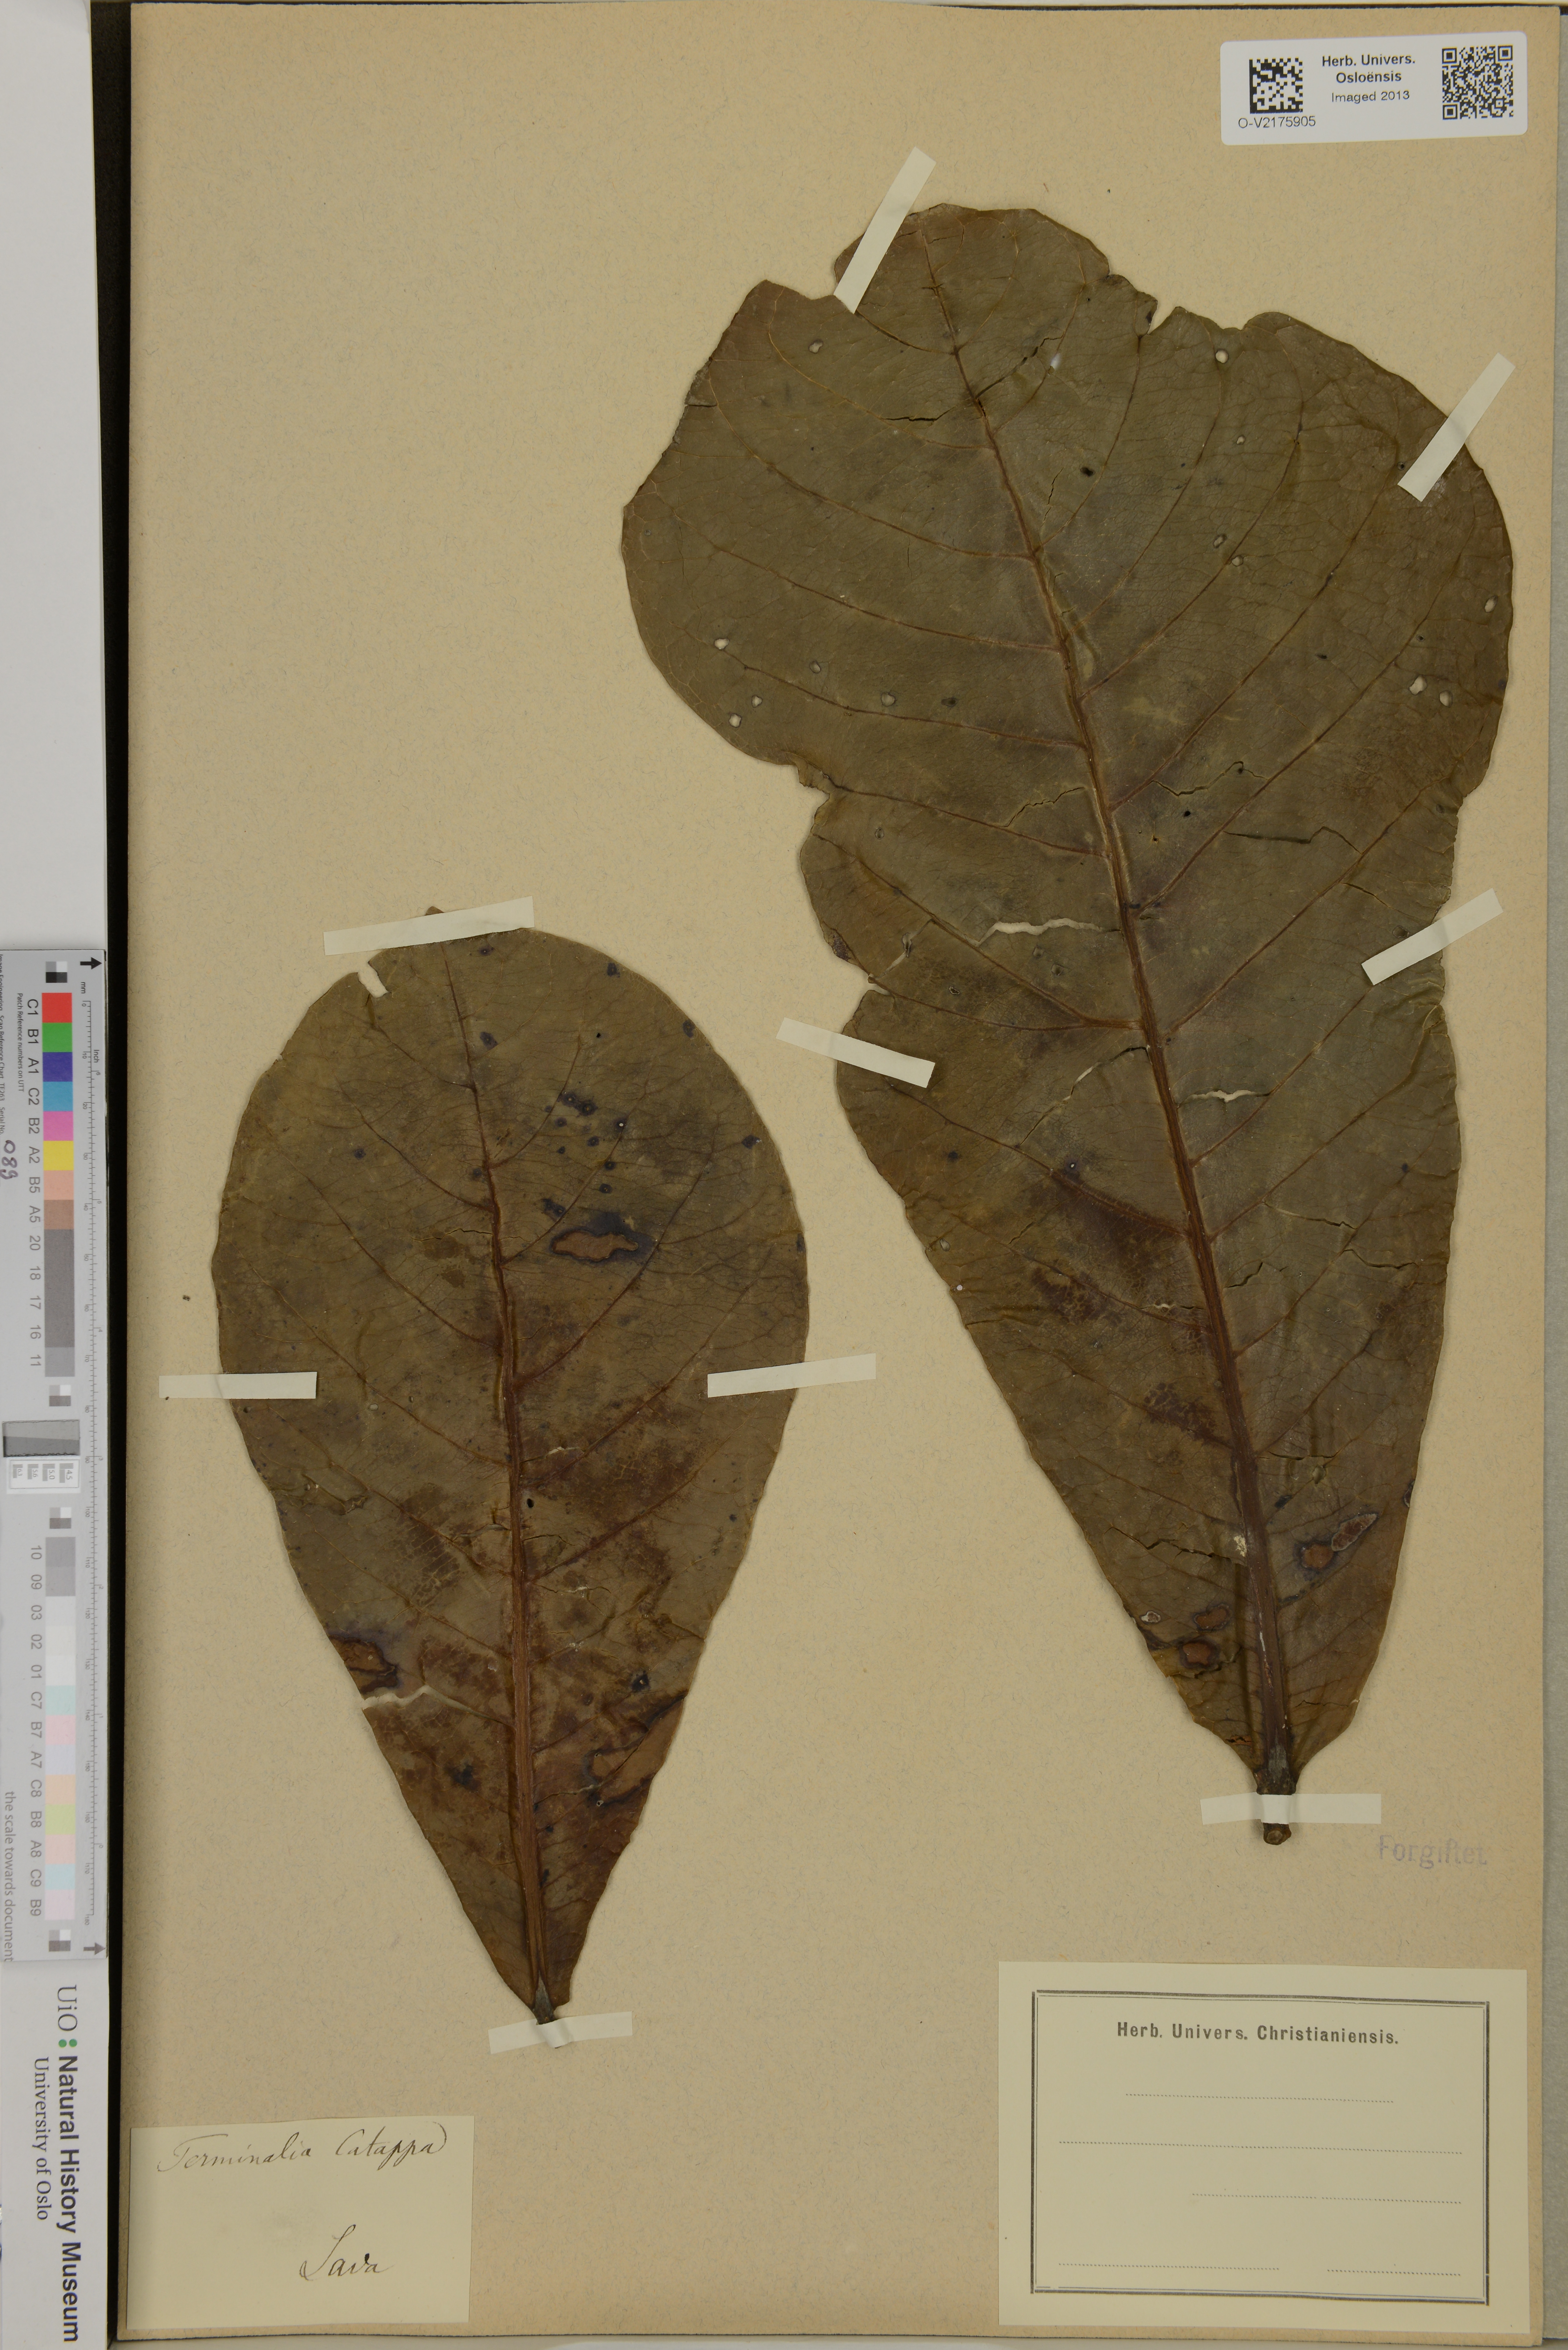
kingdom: Plantae
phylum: Tracheophyta
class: Magnoliopsida
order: Myrtales
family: Combretaceae
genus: Terminalia
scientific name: Terminalia catappa
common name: Tropical almond
